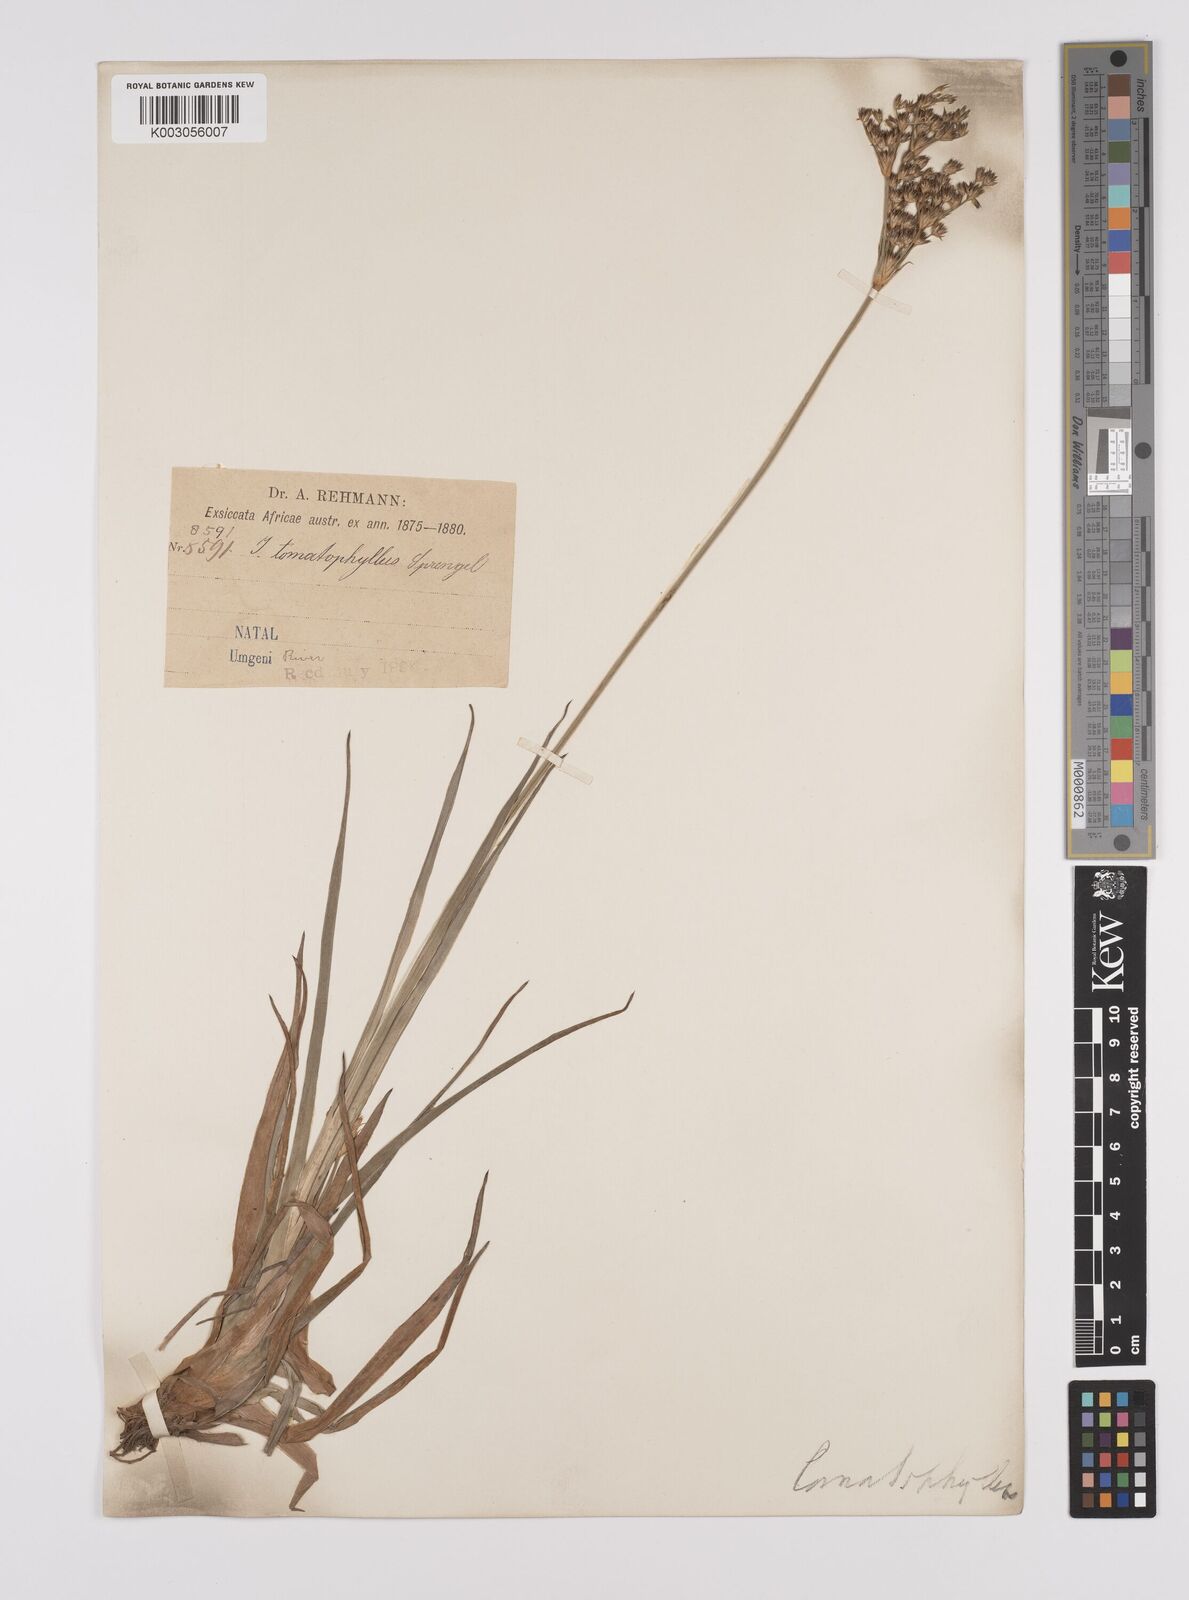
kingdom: Plantae
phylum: Tracheophyta
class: Liliopsida
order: Poales
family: Juncaceae
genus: Juncus
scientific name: Juncus lomatophyllus
